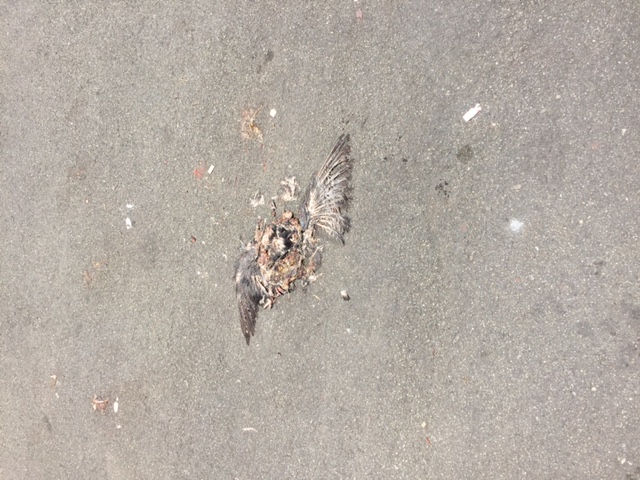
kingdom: Animalia
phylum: Chordata
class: Aves
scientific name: Aves
